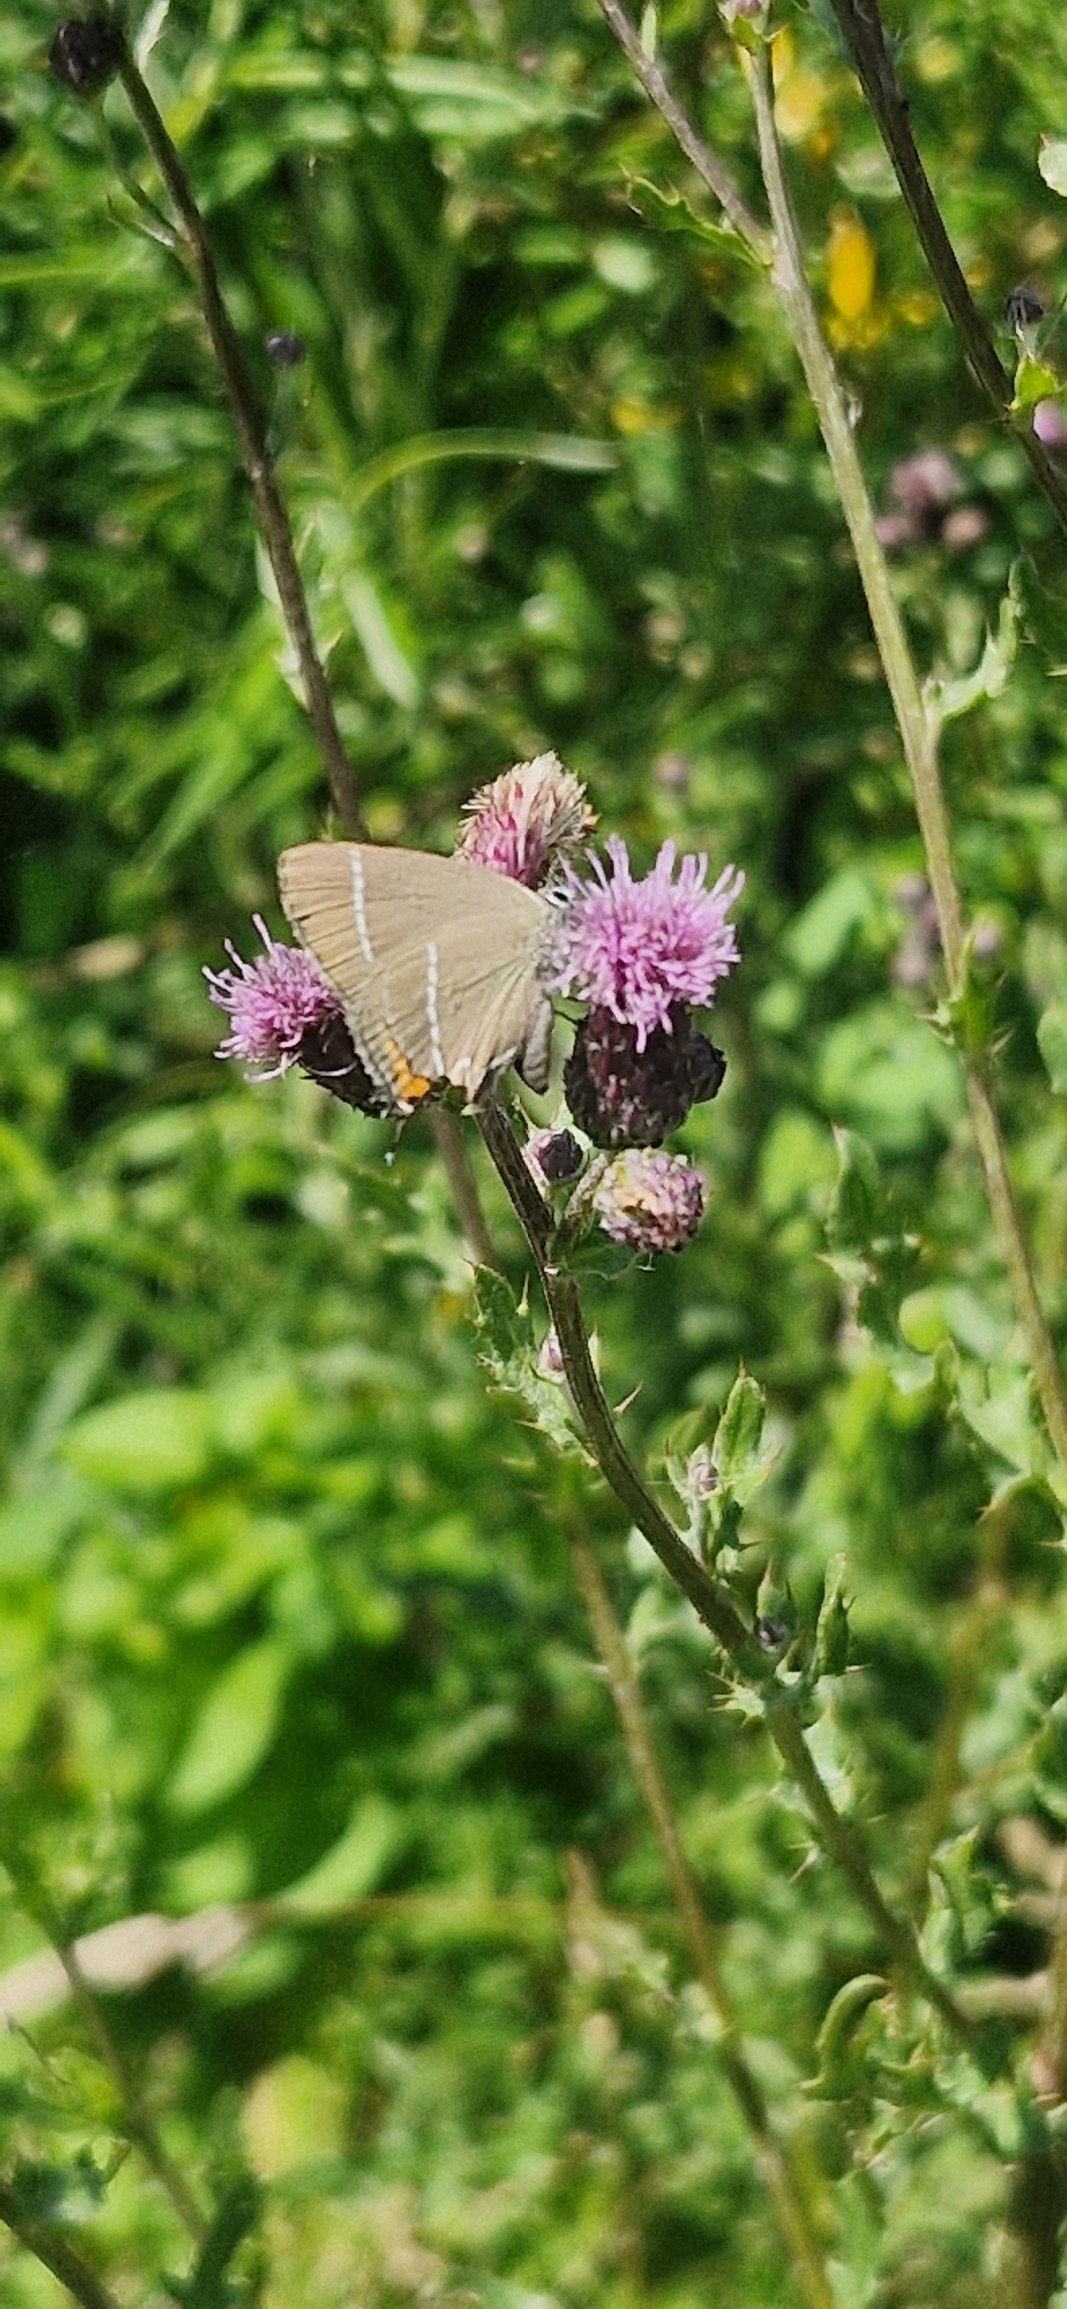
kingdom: Animalia
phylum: Arthropoda
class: Insecta
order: Lepidoptera
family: Lycaenidae
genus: Satyrium
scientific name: Satyrium w-album
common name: Det hvide W
